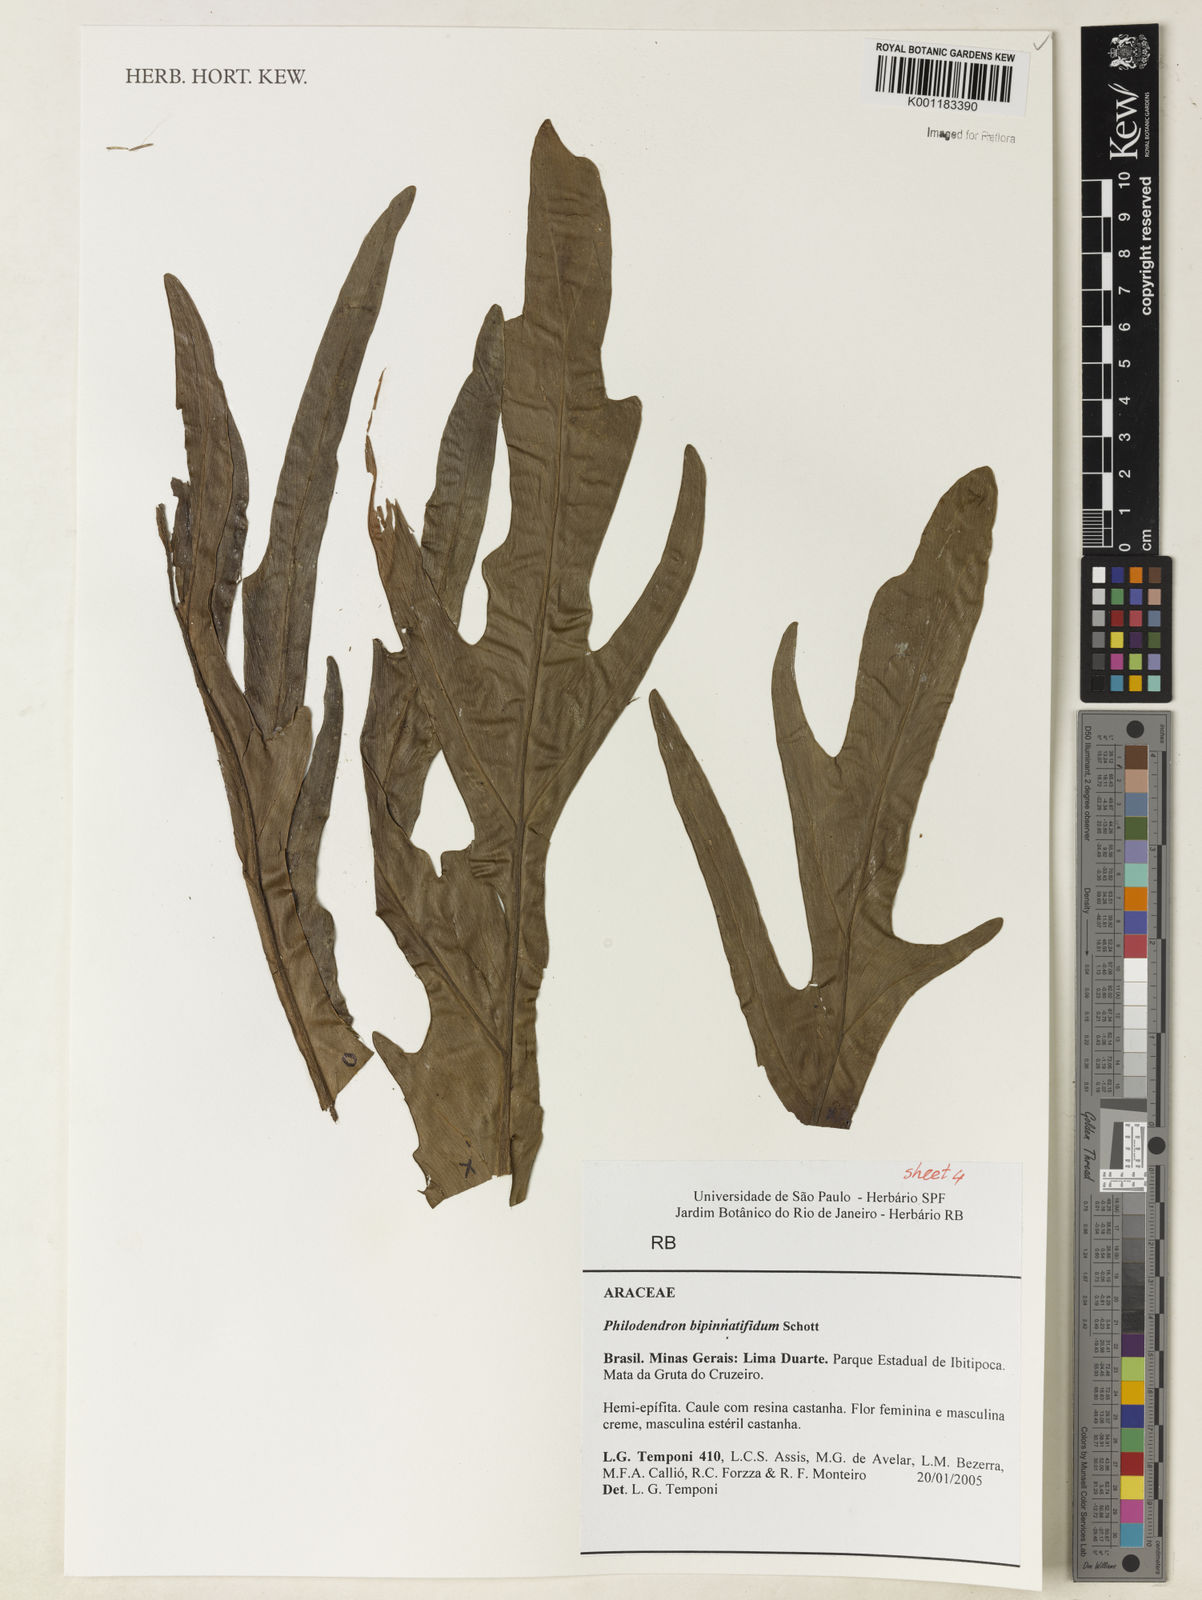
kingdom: Plantae
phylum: Tracheophyta
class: Liliopsida
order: Alismatales
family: Araceae
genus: Philodendron
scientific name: Philodendron
